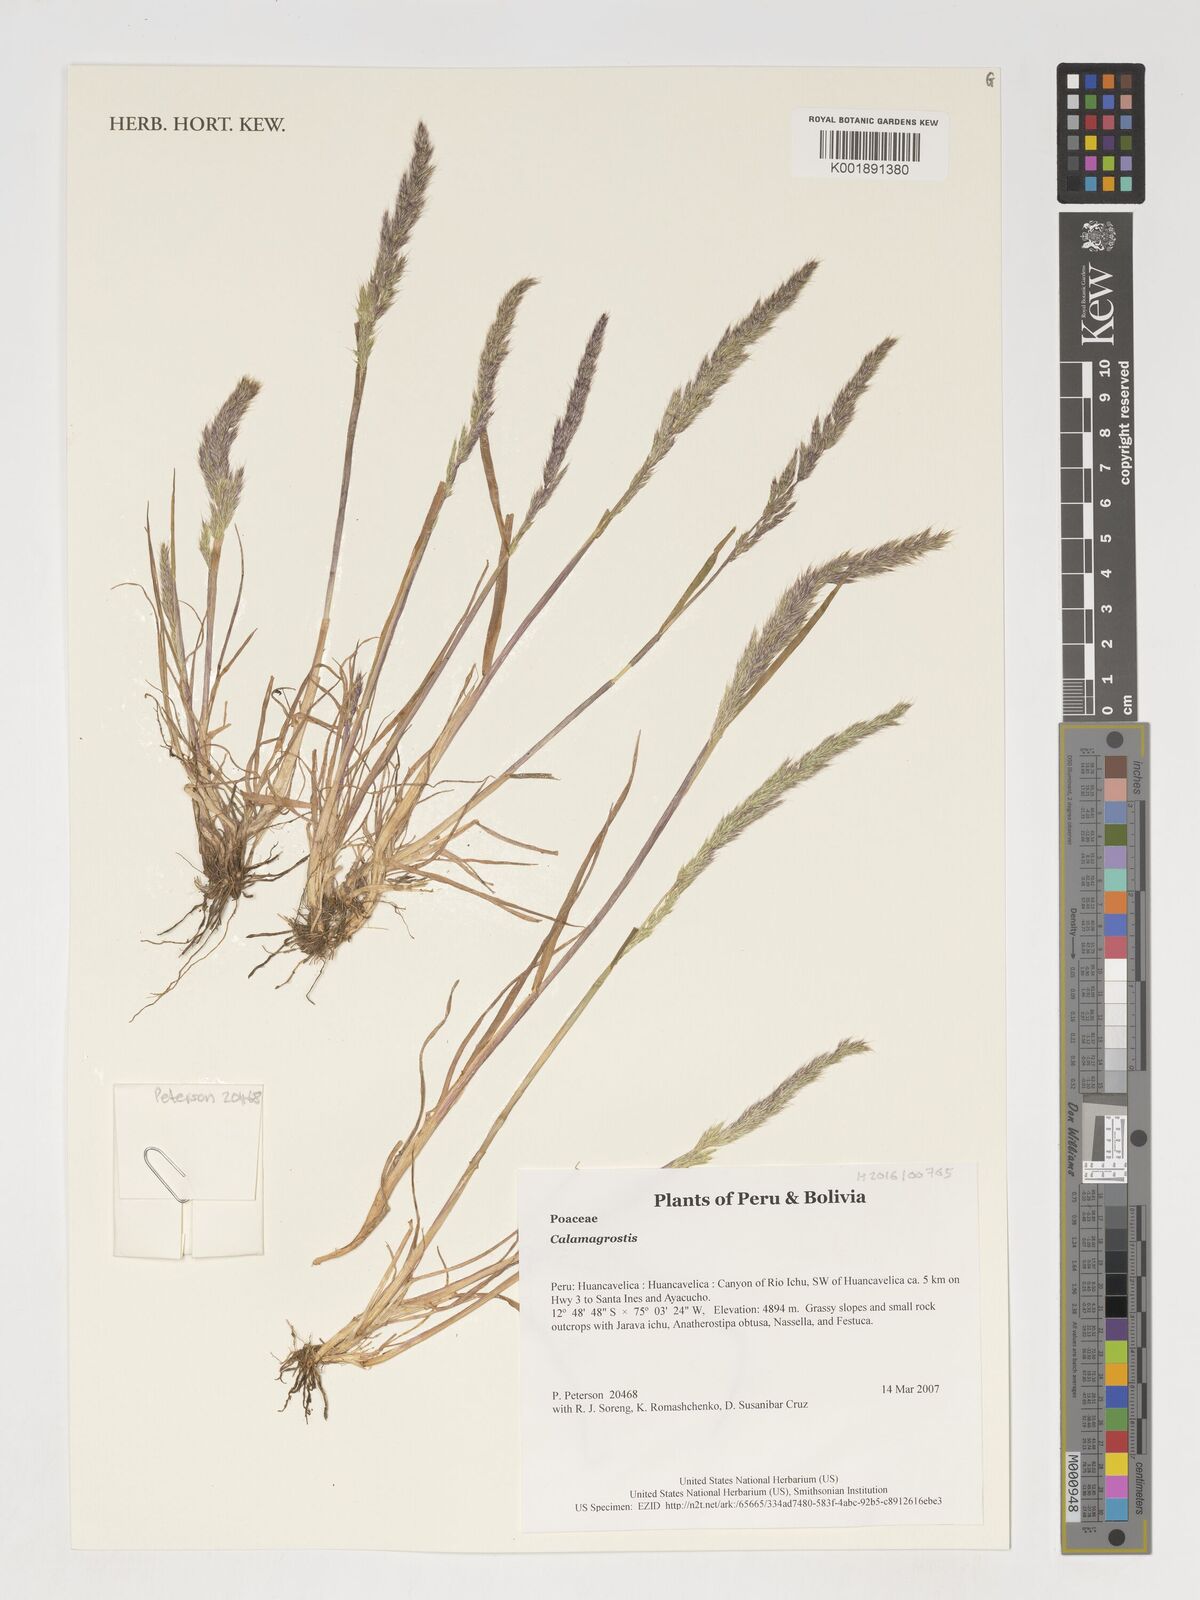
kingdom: Plantae
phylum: Tracheophyta
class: Liliopsida
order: Poales
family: Poaceae
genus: Calamagrostis
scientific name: Calamagrostis
